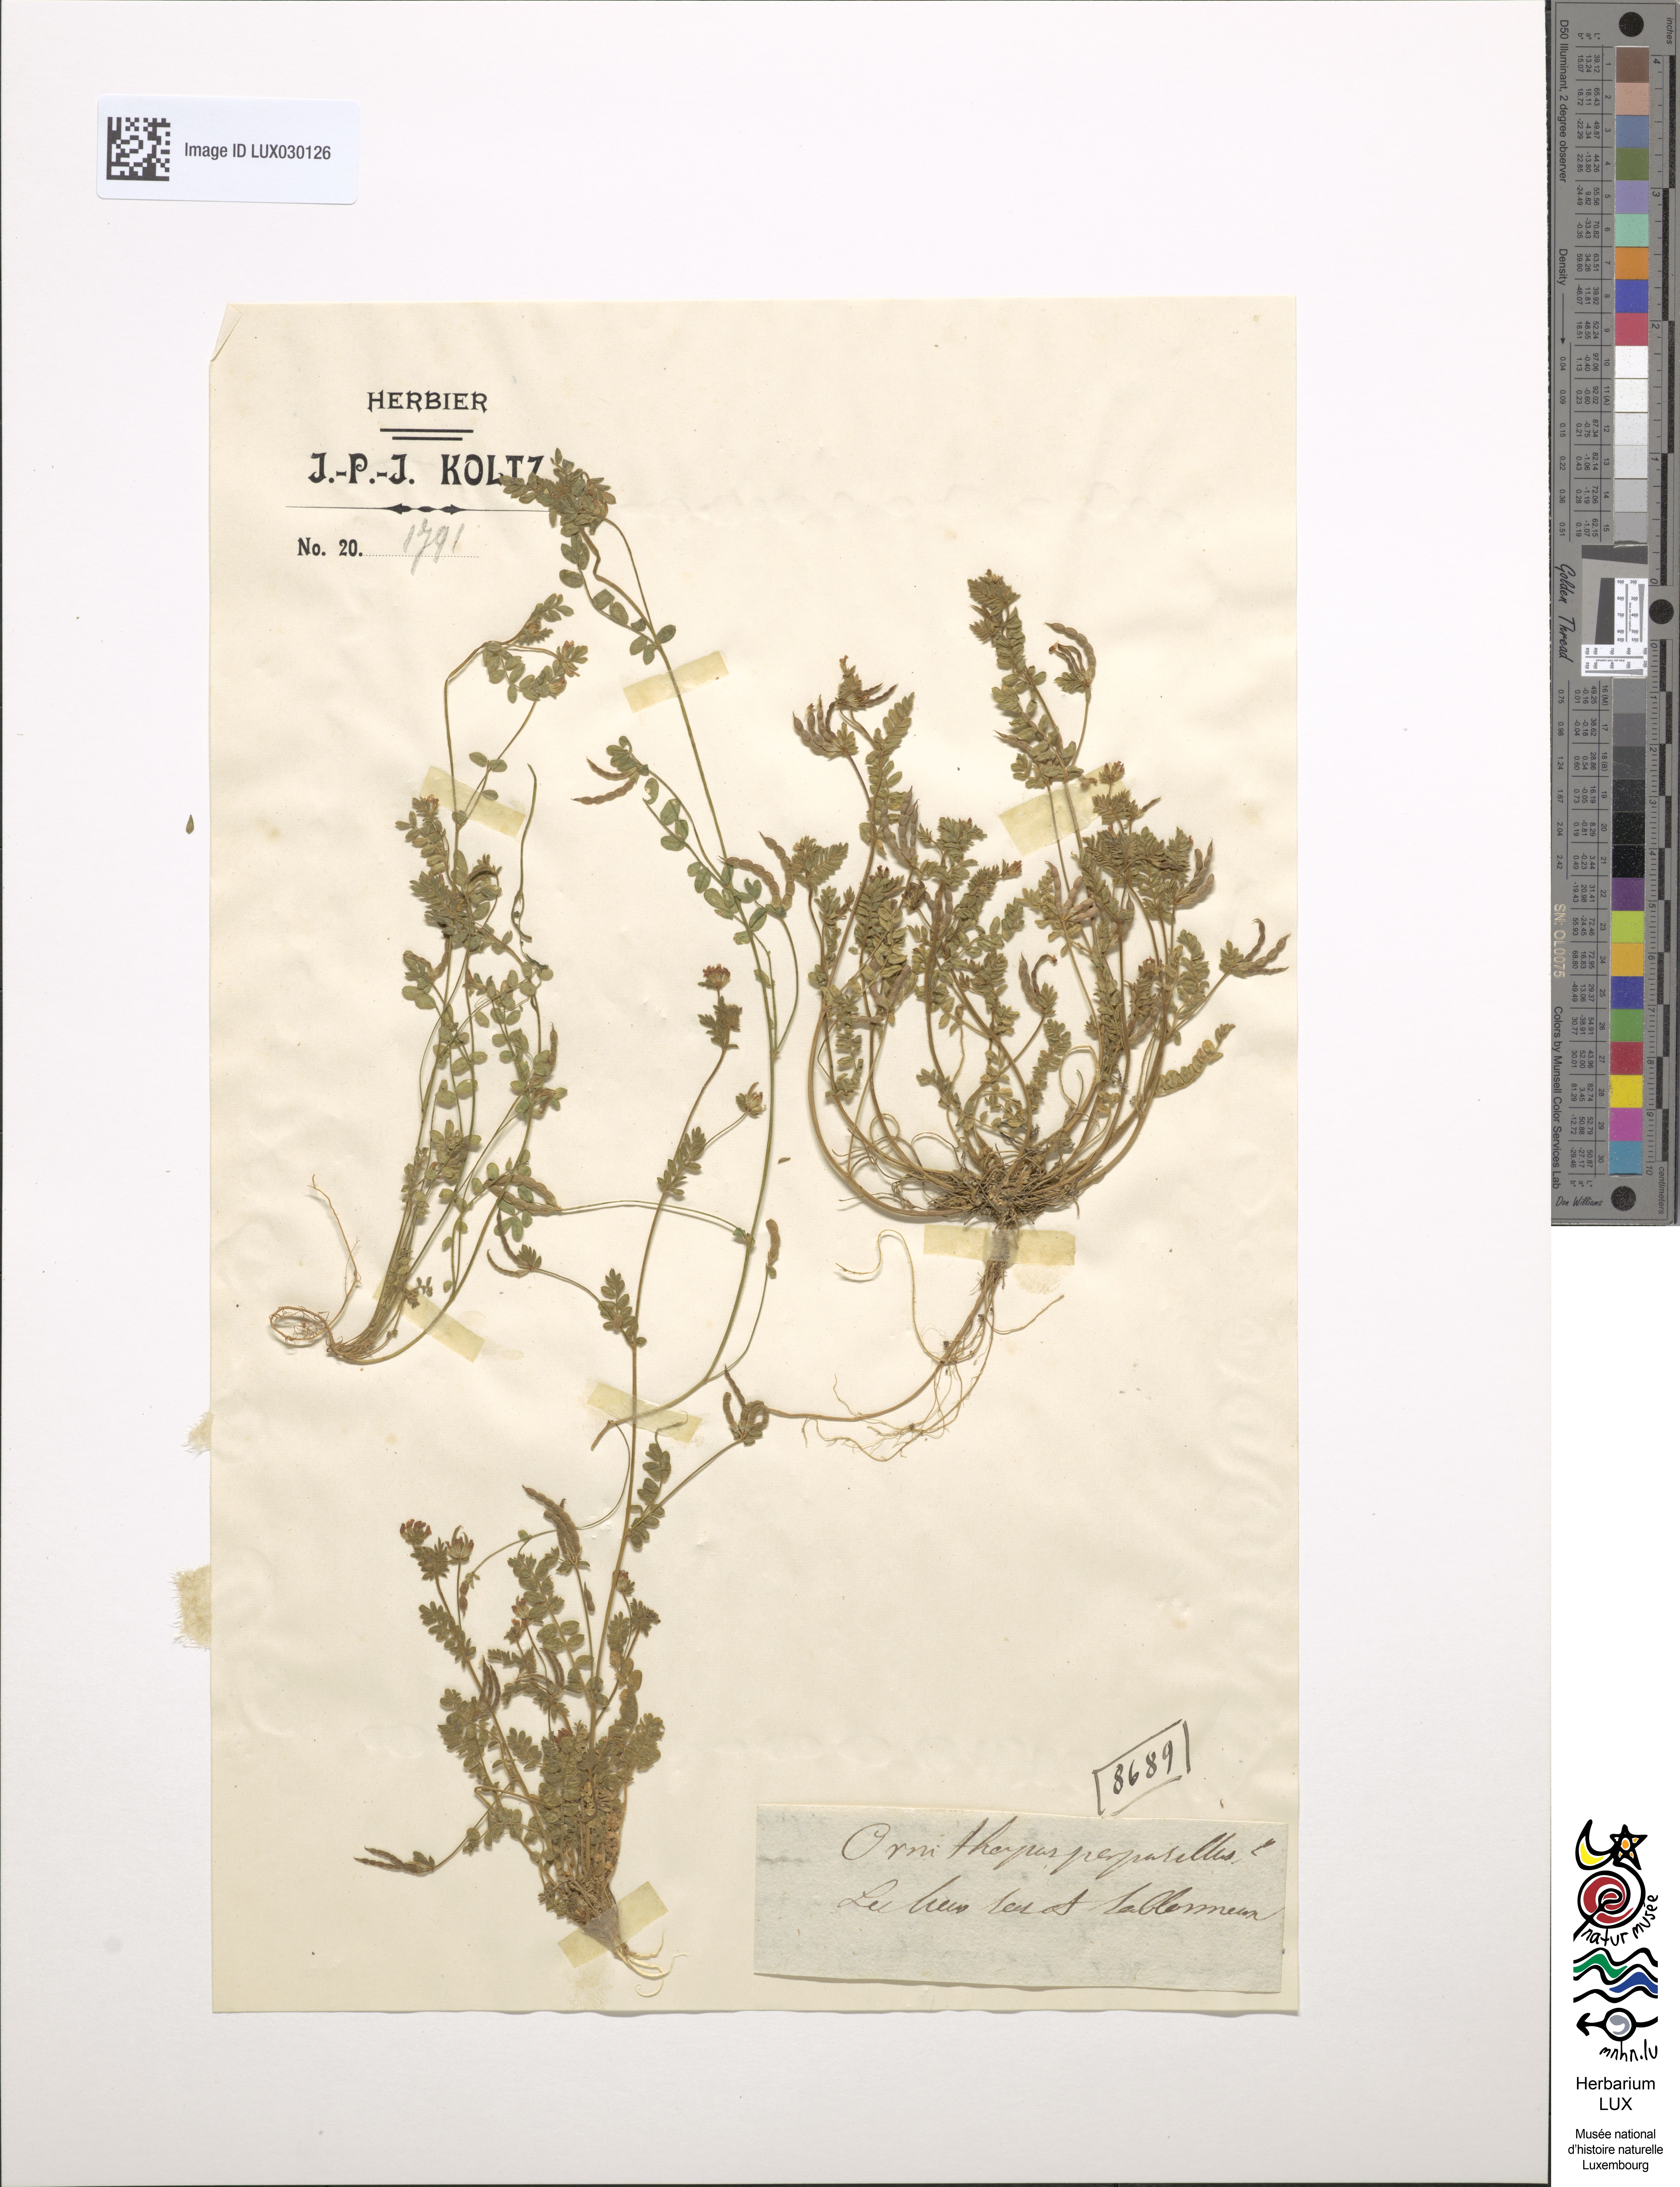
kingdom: Plantae
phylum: Tracheophyta
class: Magnoliopsida
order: Fabales
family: Fabaceae
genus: Ornithopus
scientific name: Ornithopus perpusillus
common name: Bird's-foot
